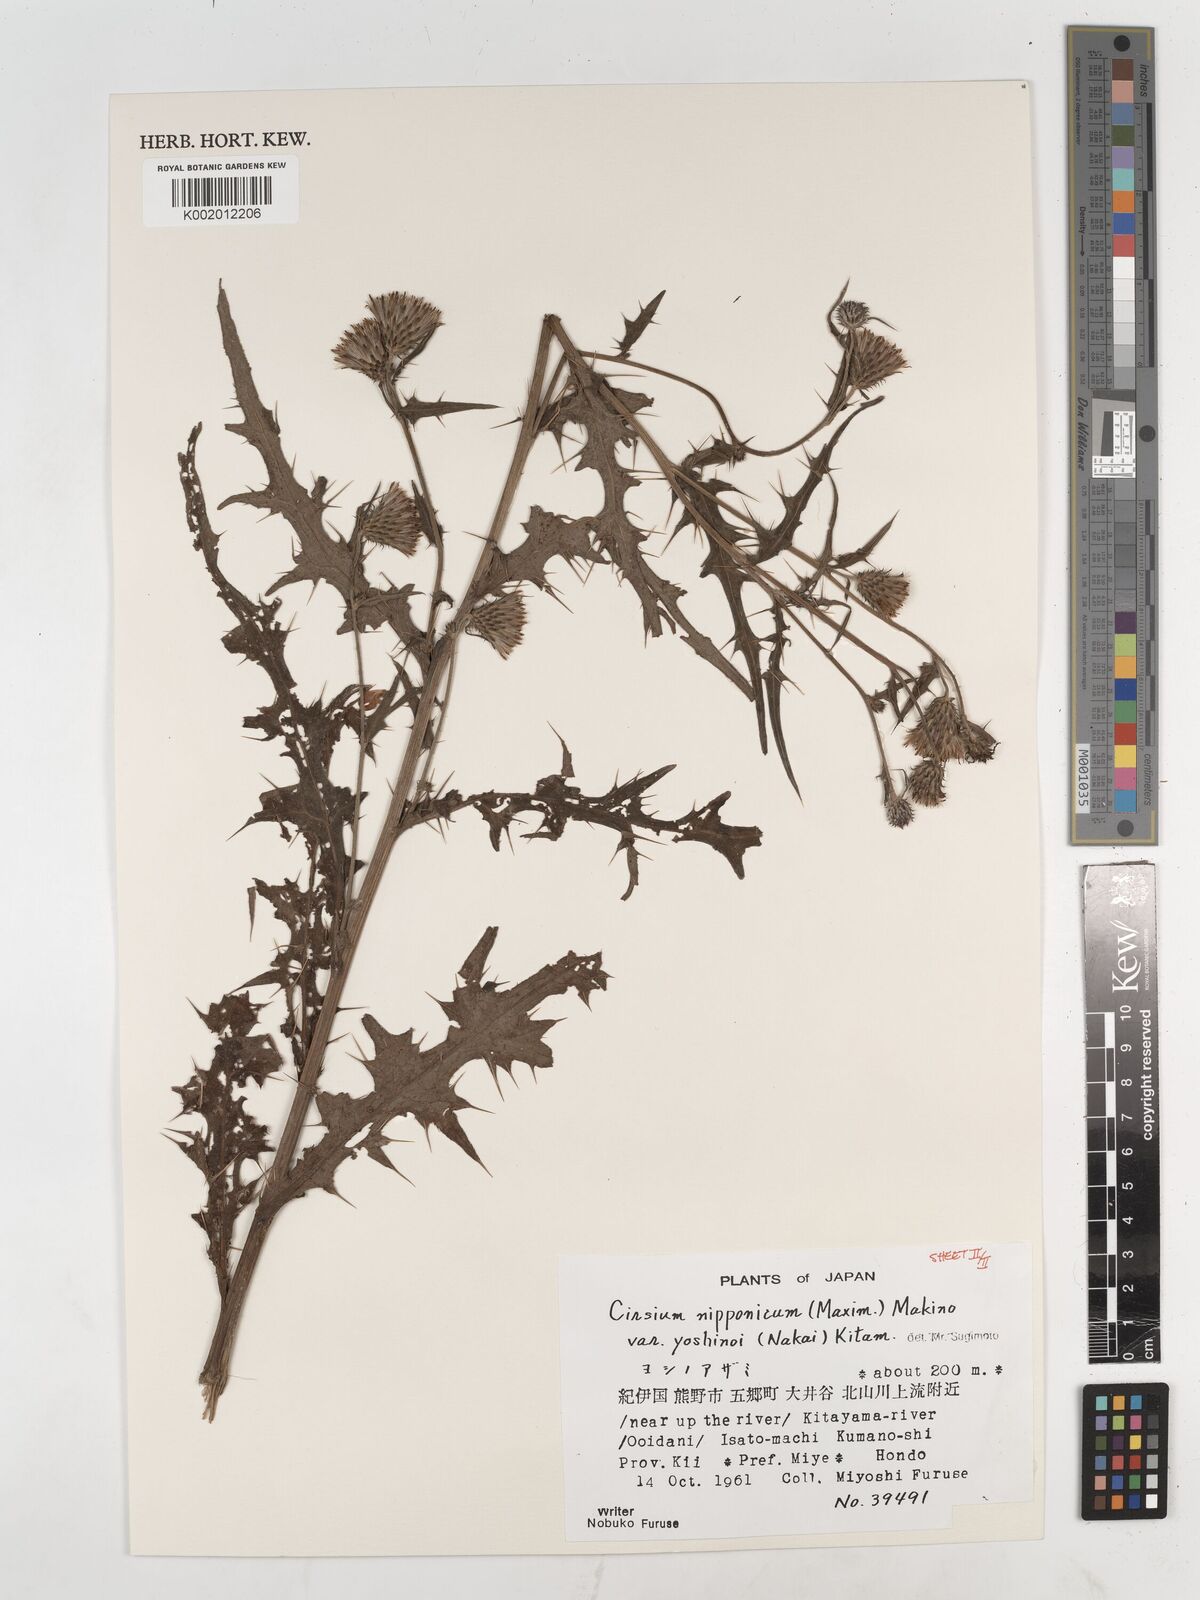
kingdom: Plantae
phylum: Tracheophyta
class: Magnoliopsida
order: Asterales
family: Asteraceae
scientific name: Asteraceae
